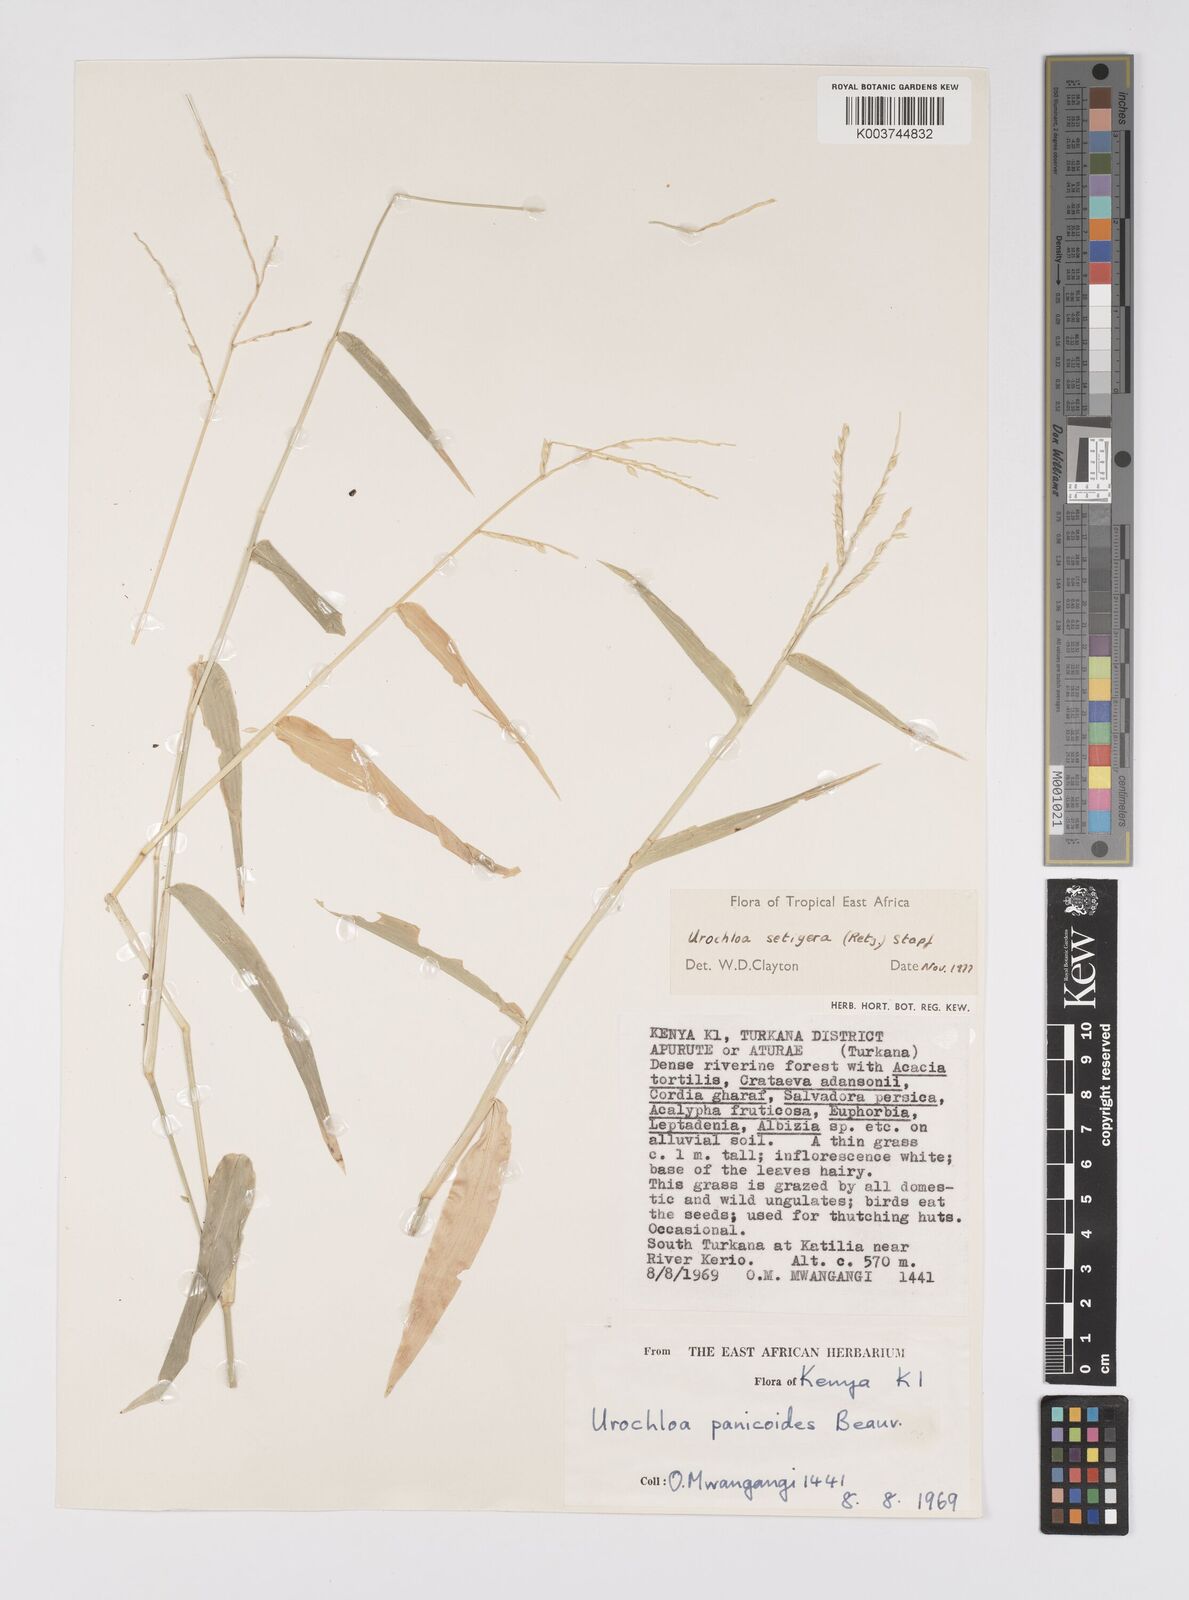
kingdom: Plantae
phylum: Tracheophyta
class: Liliopsida
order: Poales
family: Poaceae
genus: Urochloa
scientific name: Urochloa trichopodioides
